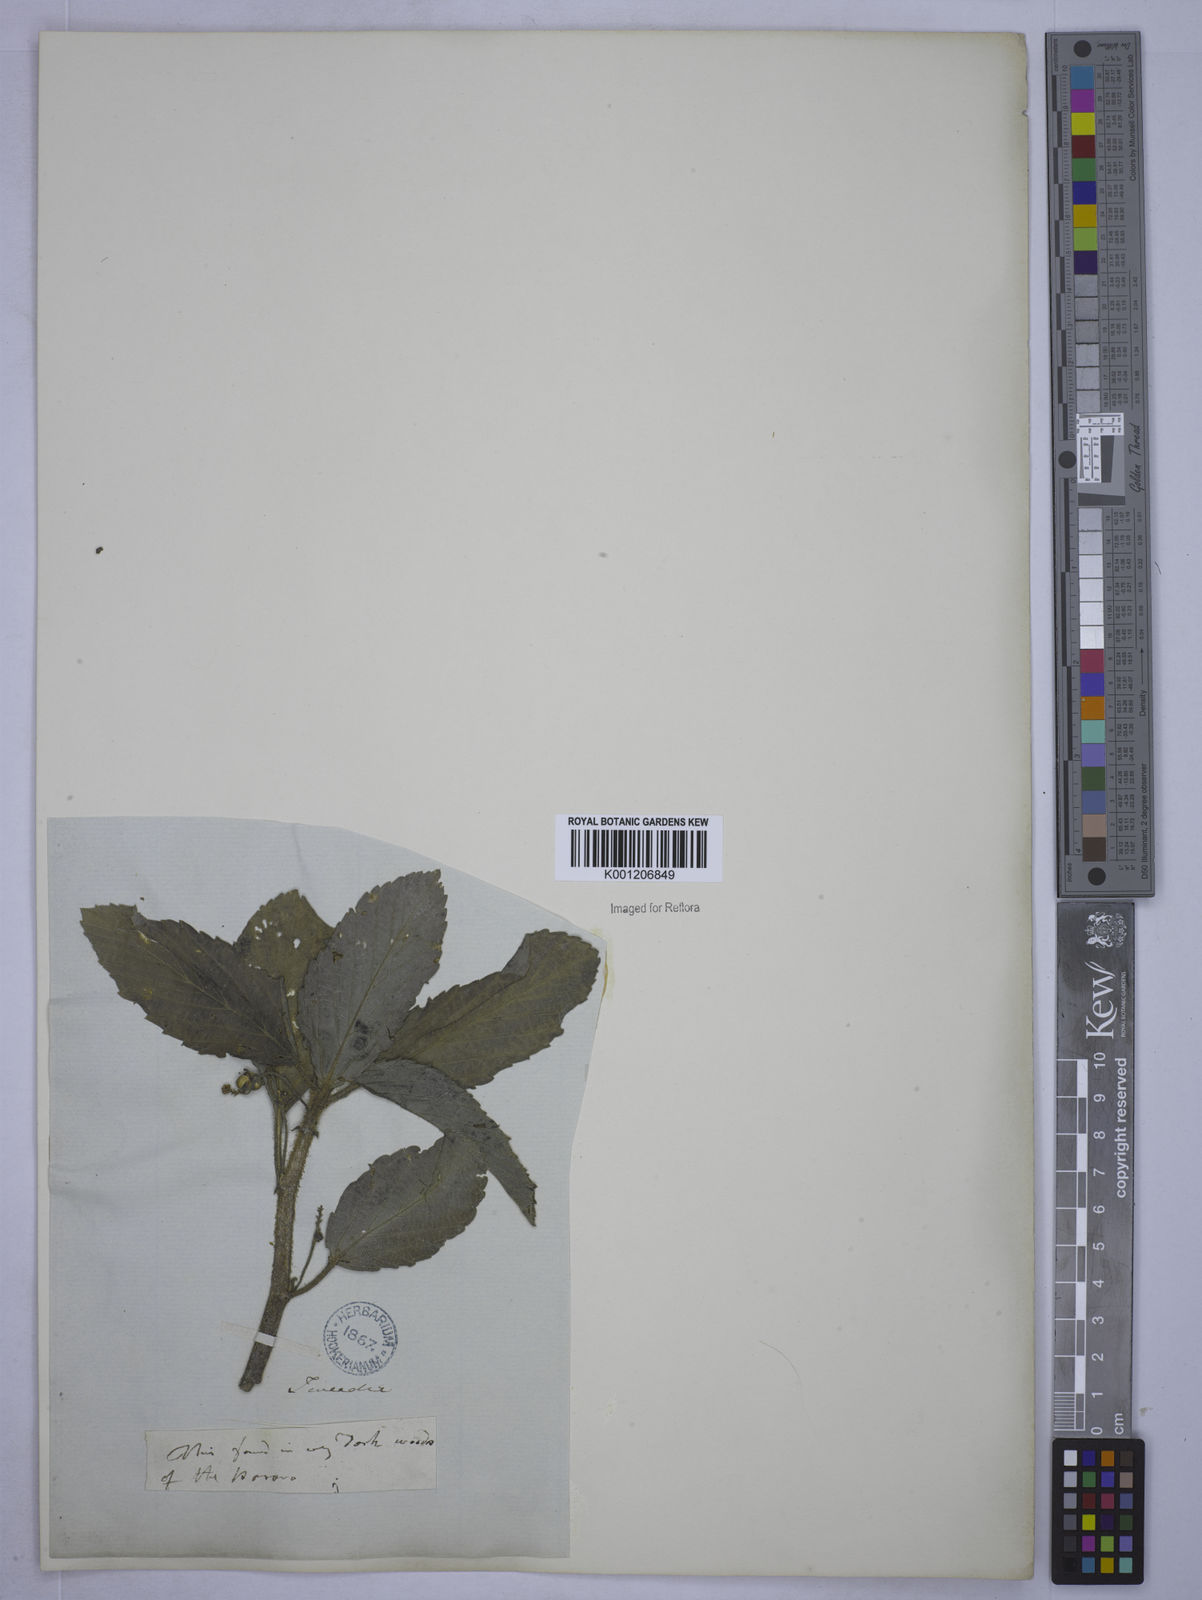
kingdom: Plantae
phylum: Tracheophyta
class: Magnoliopsida
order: Malpighiales
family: Euphorbiaceae
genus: Caperonia
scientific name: Caperonia palustris
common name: Sacatrapo
